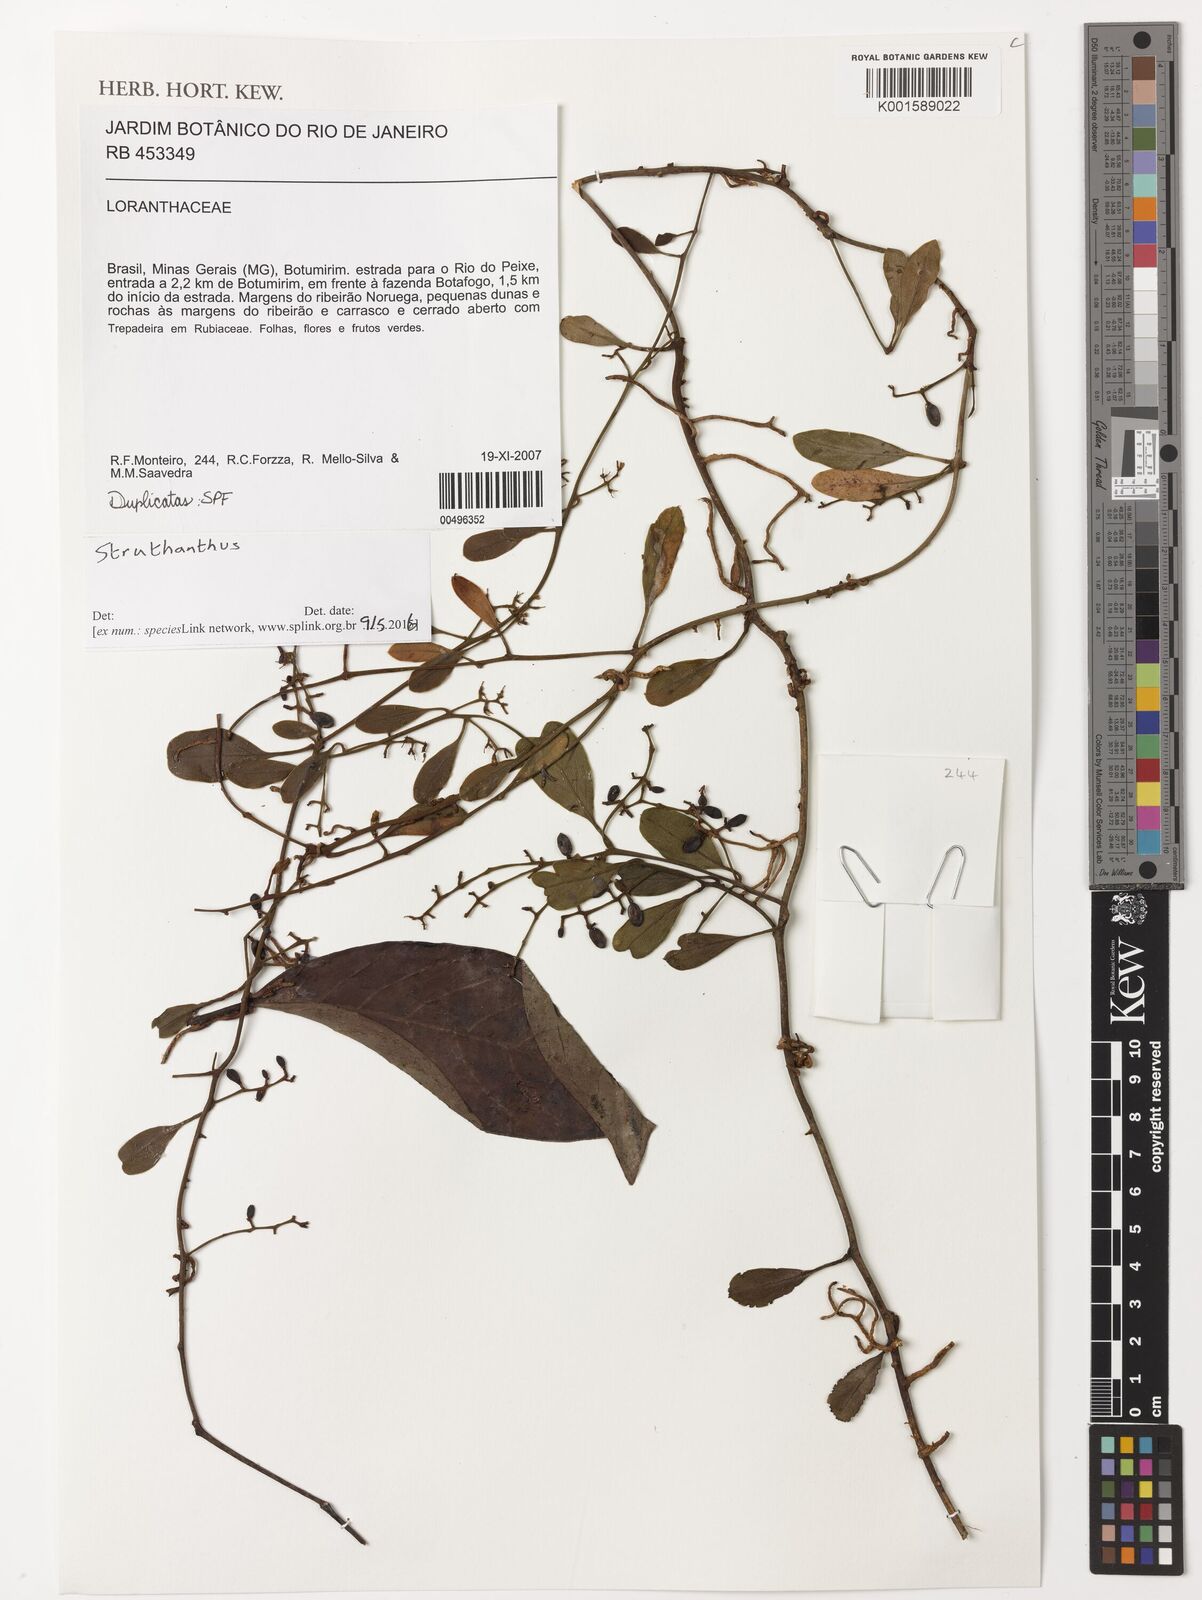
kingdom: Plantae
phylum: Tracheophyta
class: Magnoliopsida
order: Santalales
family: Loranthaceae
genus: Struthanthus
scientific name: Struthanthus
